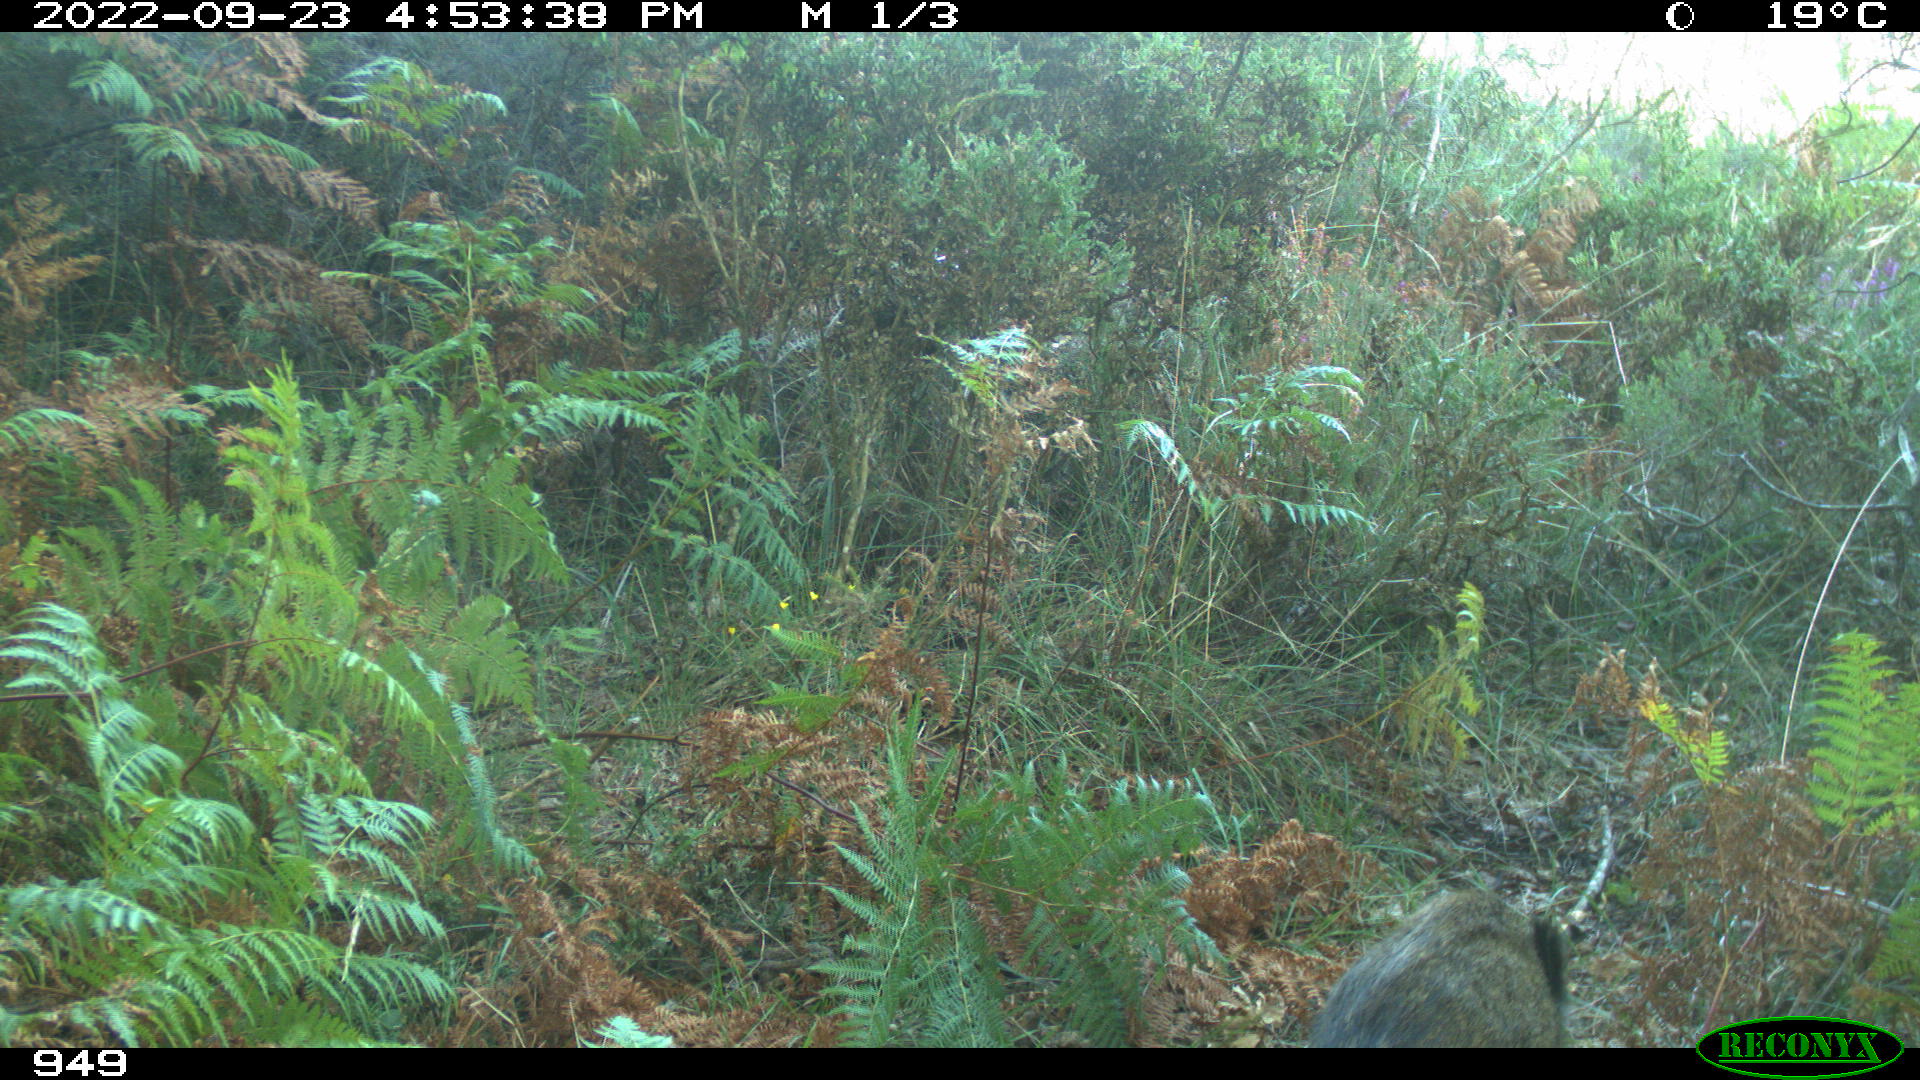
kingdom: Animalia
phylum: Chordata
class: Mammalia
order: Artiodactyla
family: Suidae
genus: Sus
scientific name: Sus scrofa
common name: Wild boar
